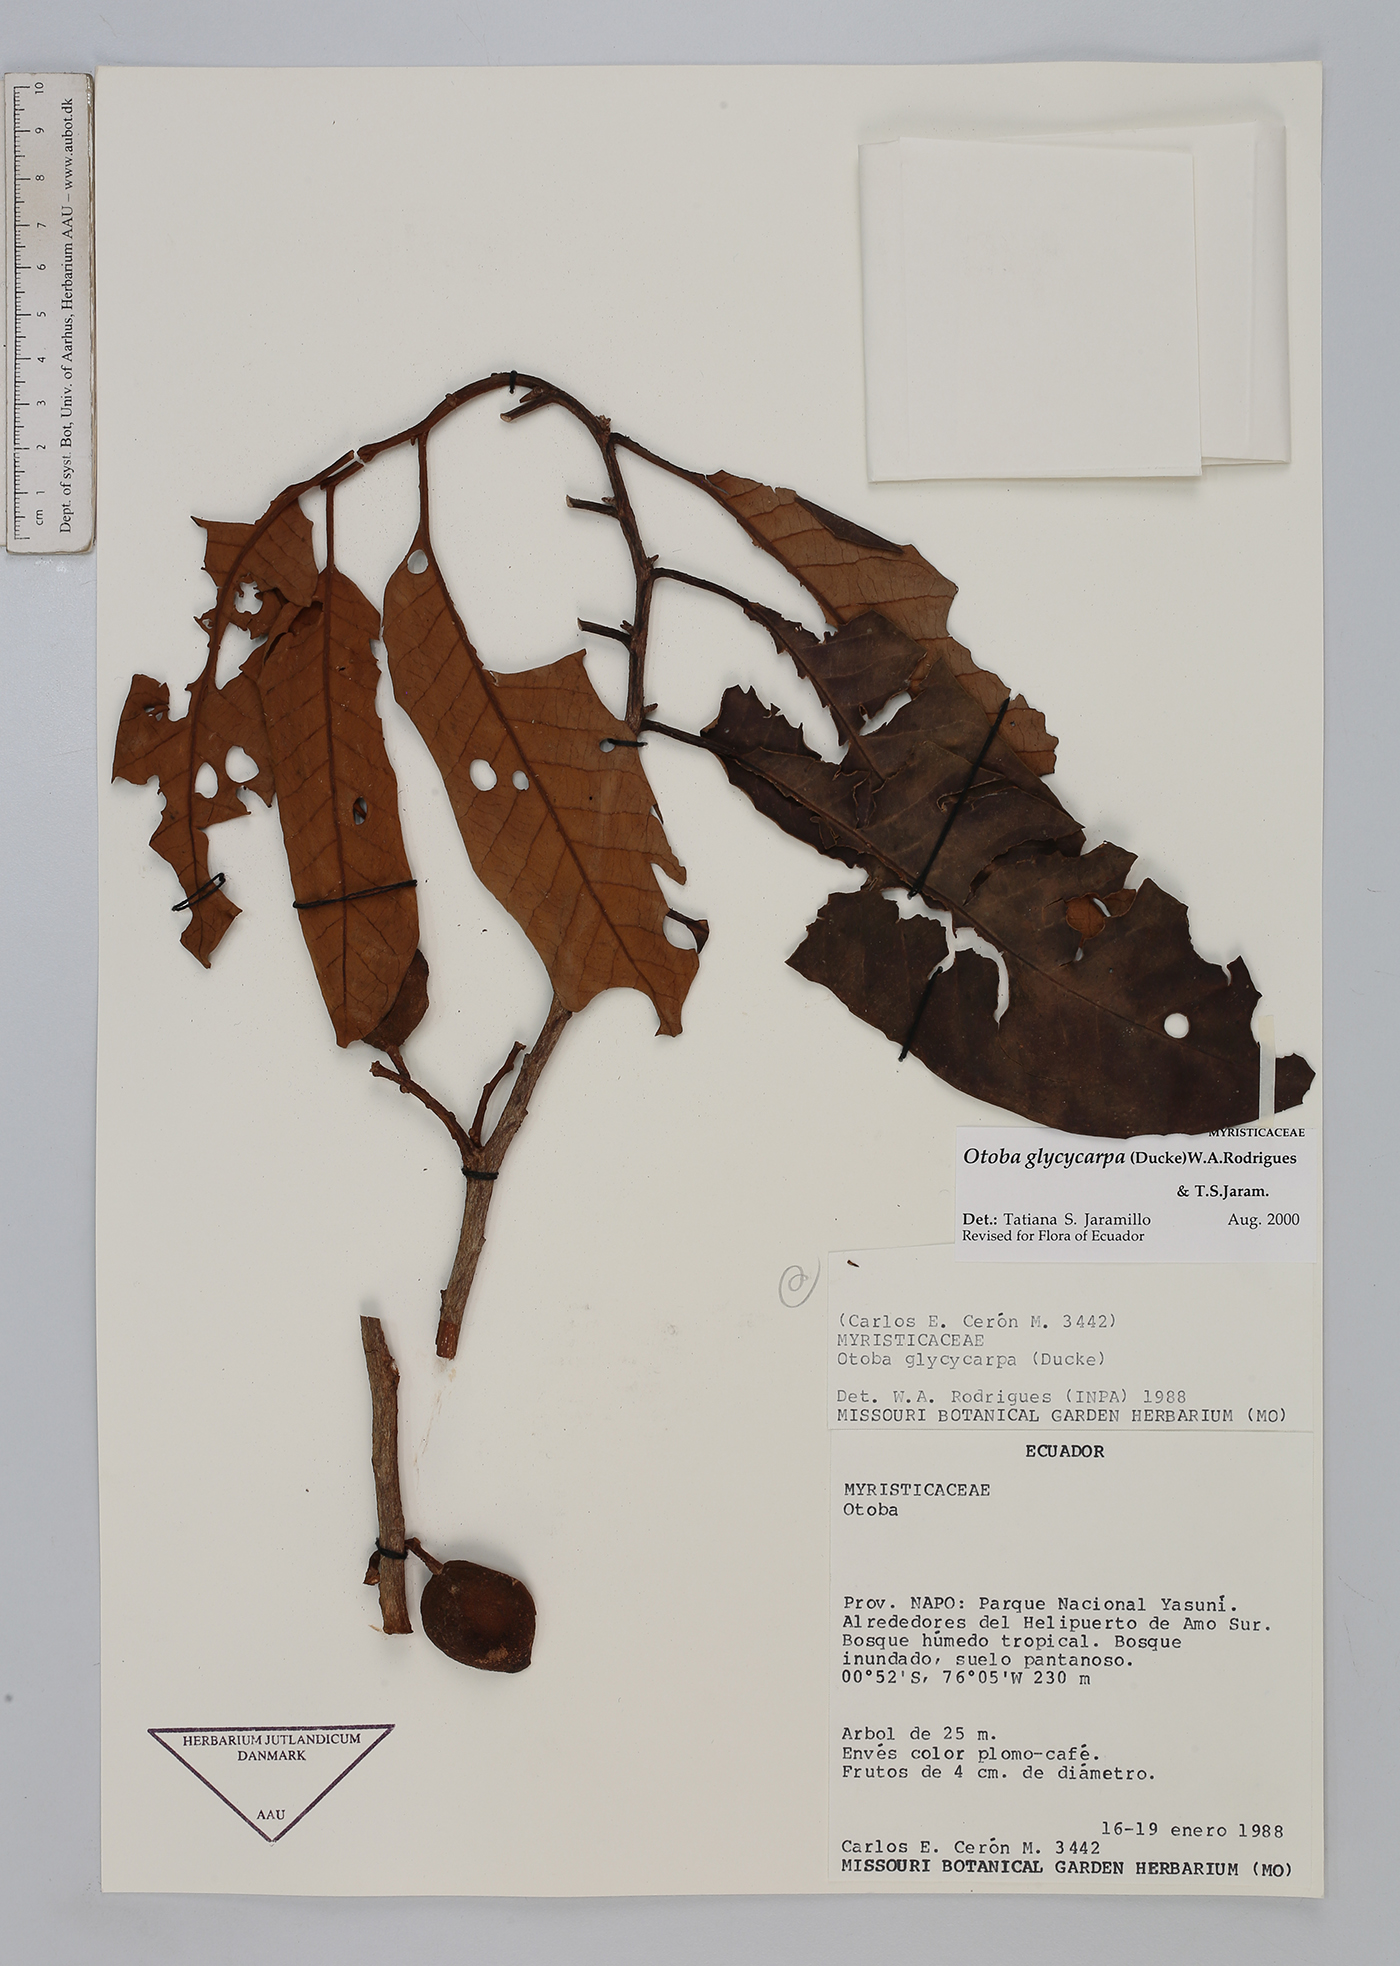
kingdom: Plantae
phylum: Tracheophyta
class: Magnoliopsida
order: Magnoliales
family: Myristicaceae
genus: Otoba
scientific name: Otoba glycycarpa
